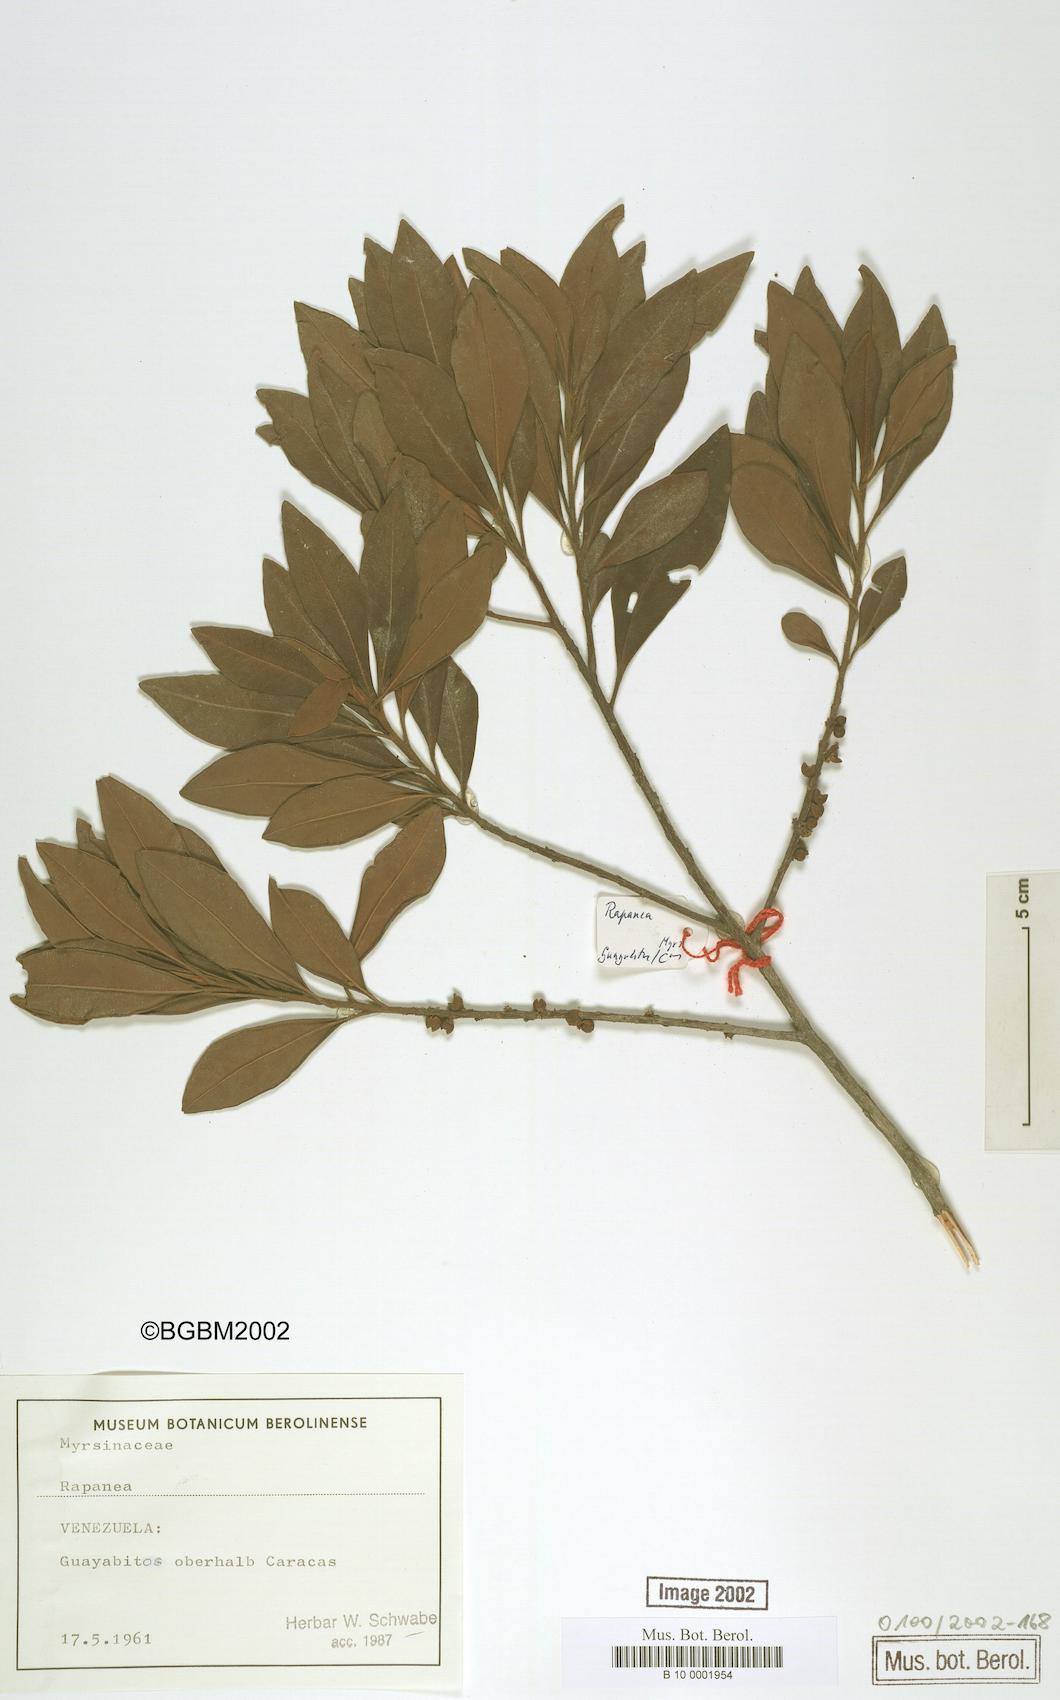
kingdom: Plantae
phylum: Tracheophyta
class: Magnoliopsida
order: Ericales
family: Primulaceae
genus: Myrsine
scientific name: Myrsine
